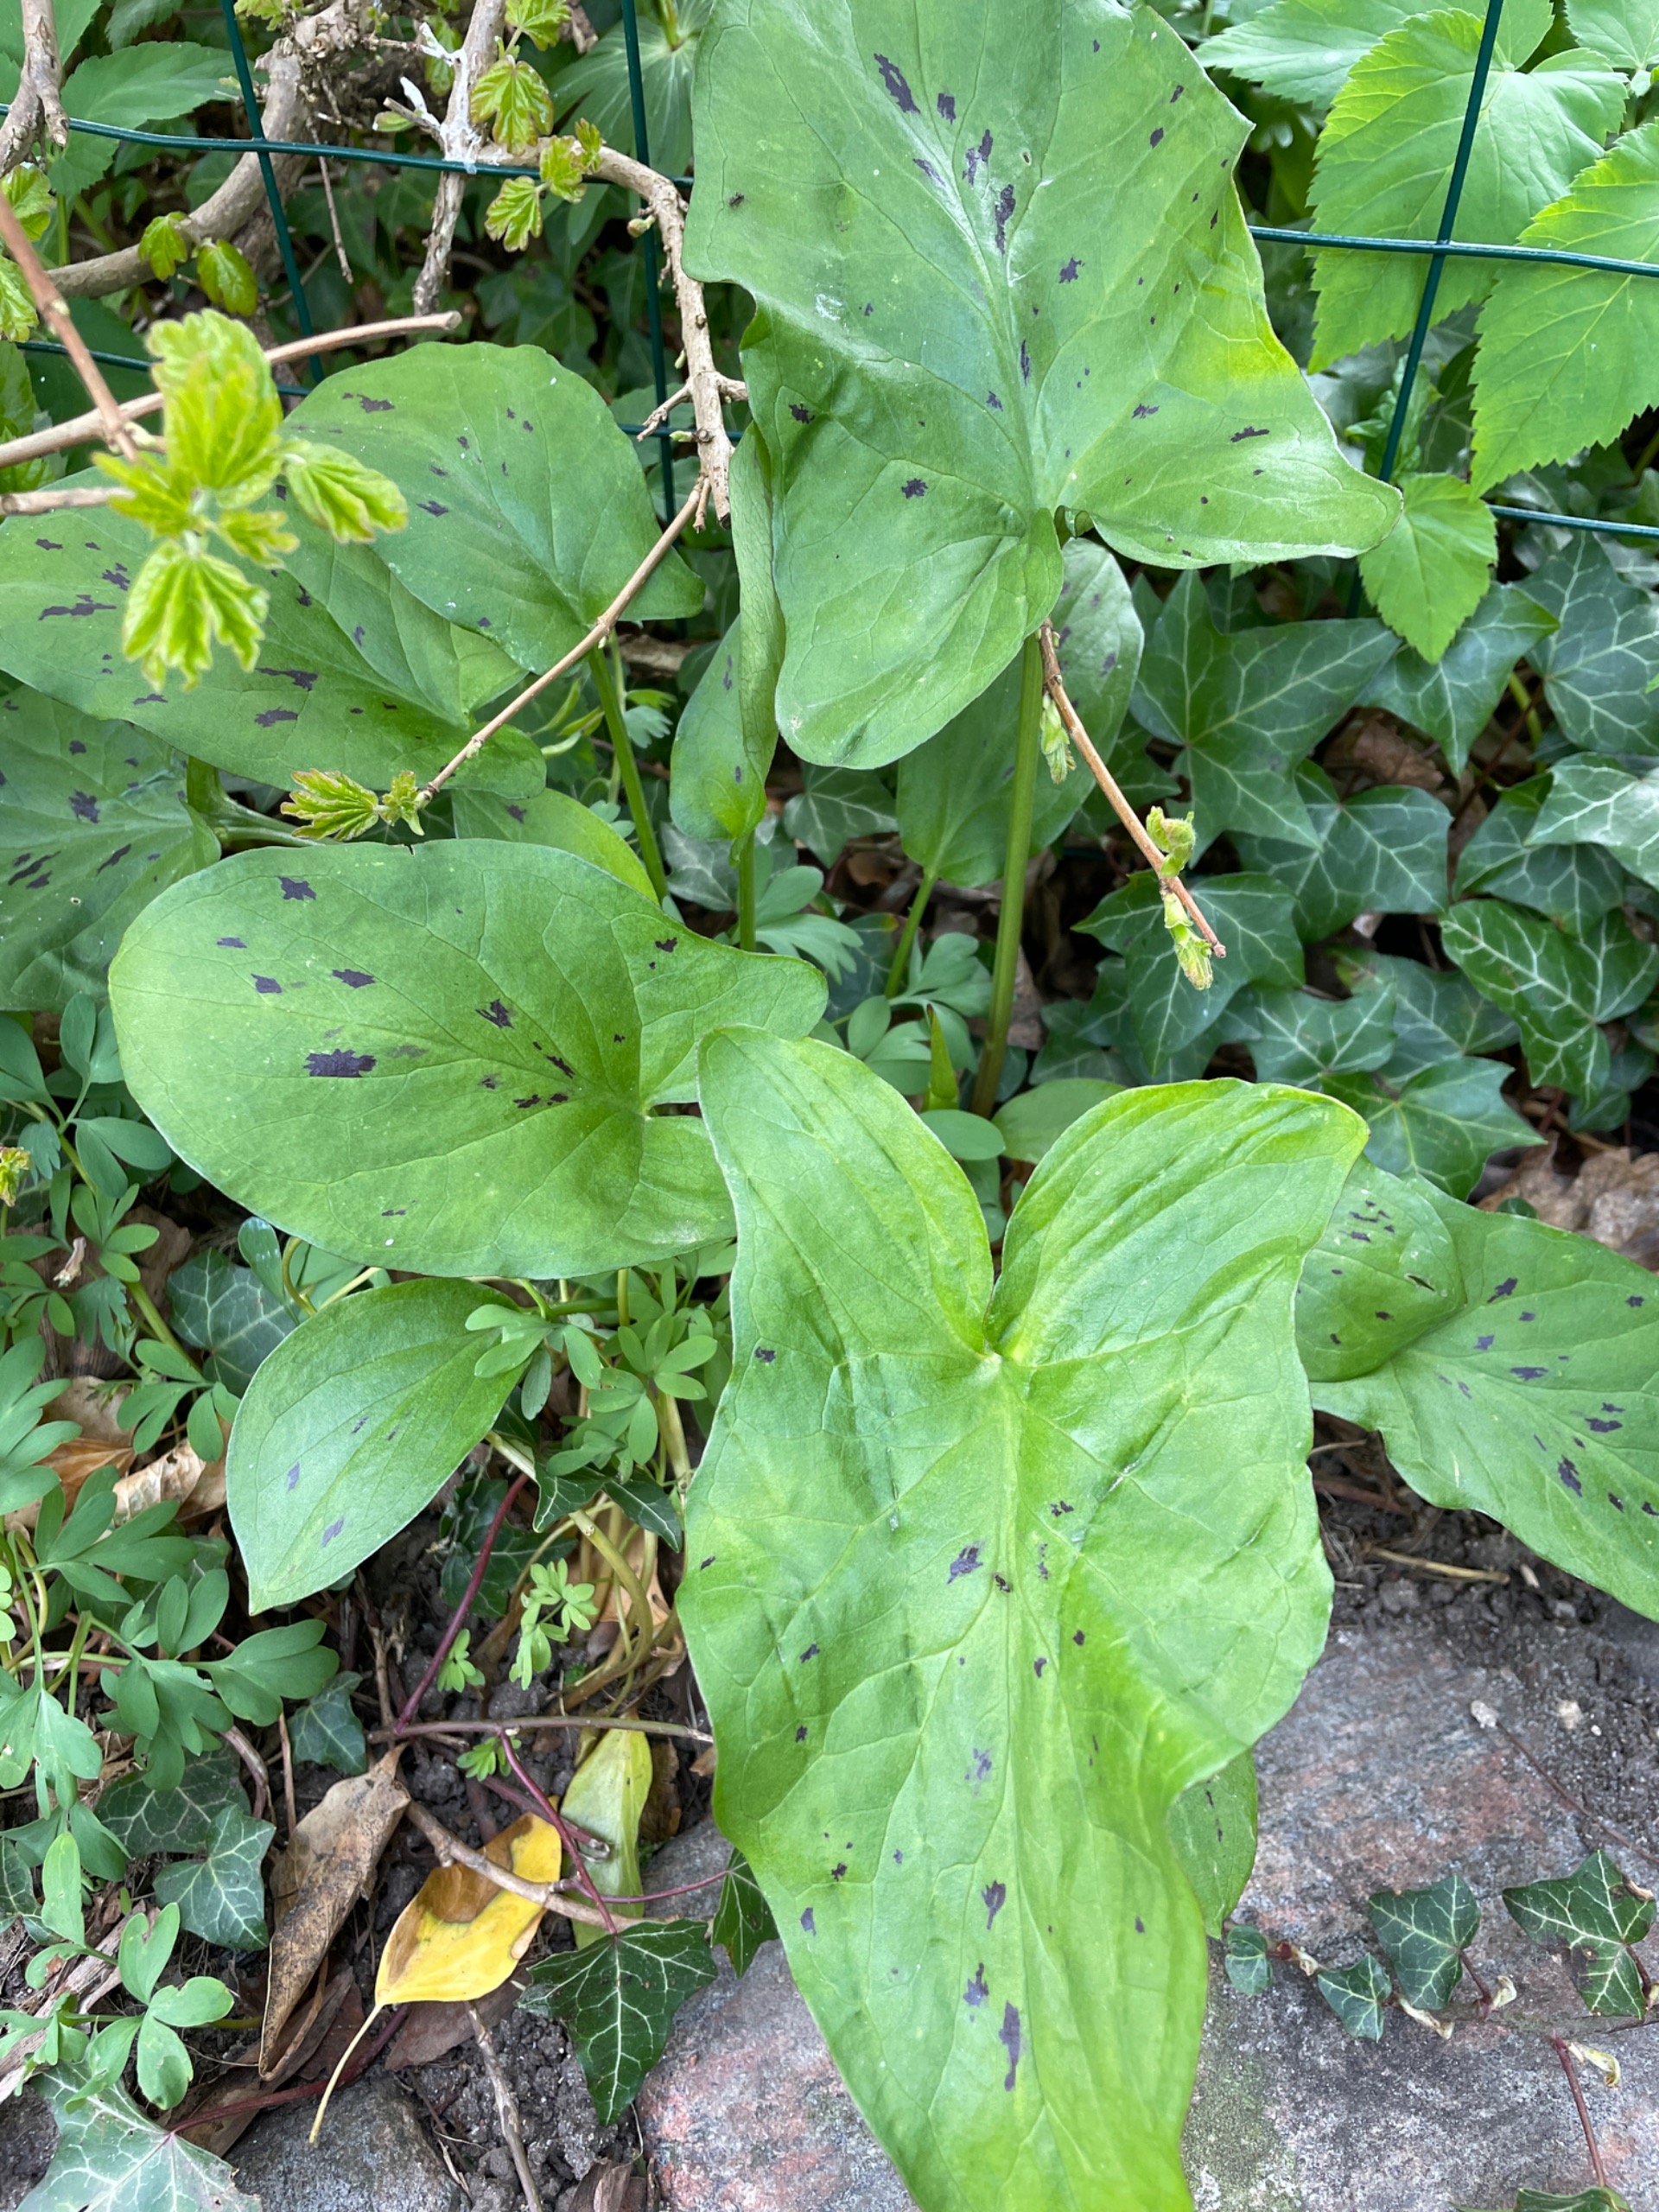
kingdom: Plantae
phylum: Tracheophyta
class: Liliopsida
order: Alismatales
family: Araceae
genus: Arum
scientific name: Arum maculatum
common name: Plettet arum
